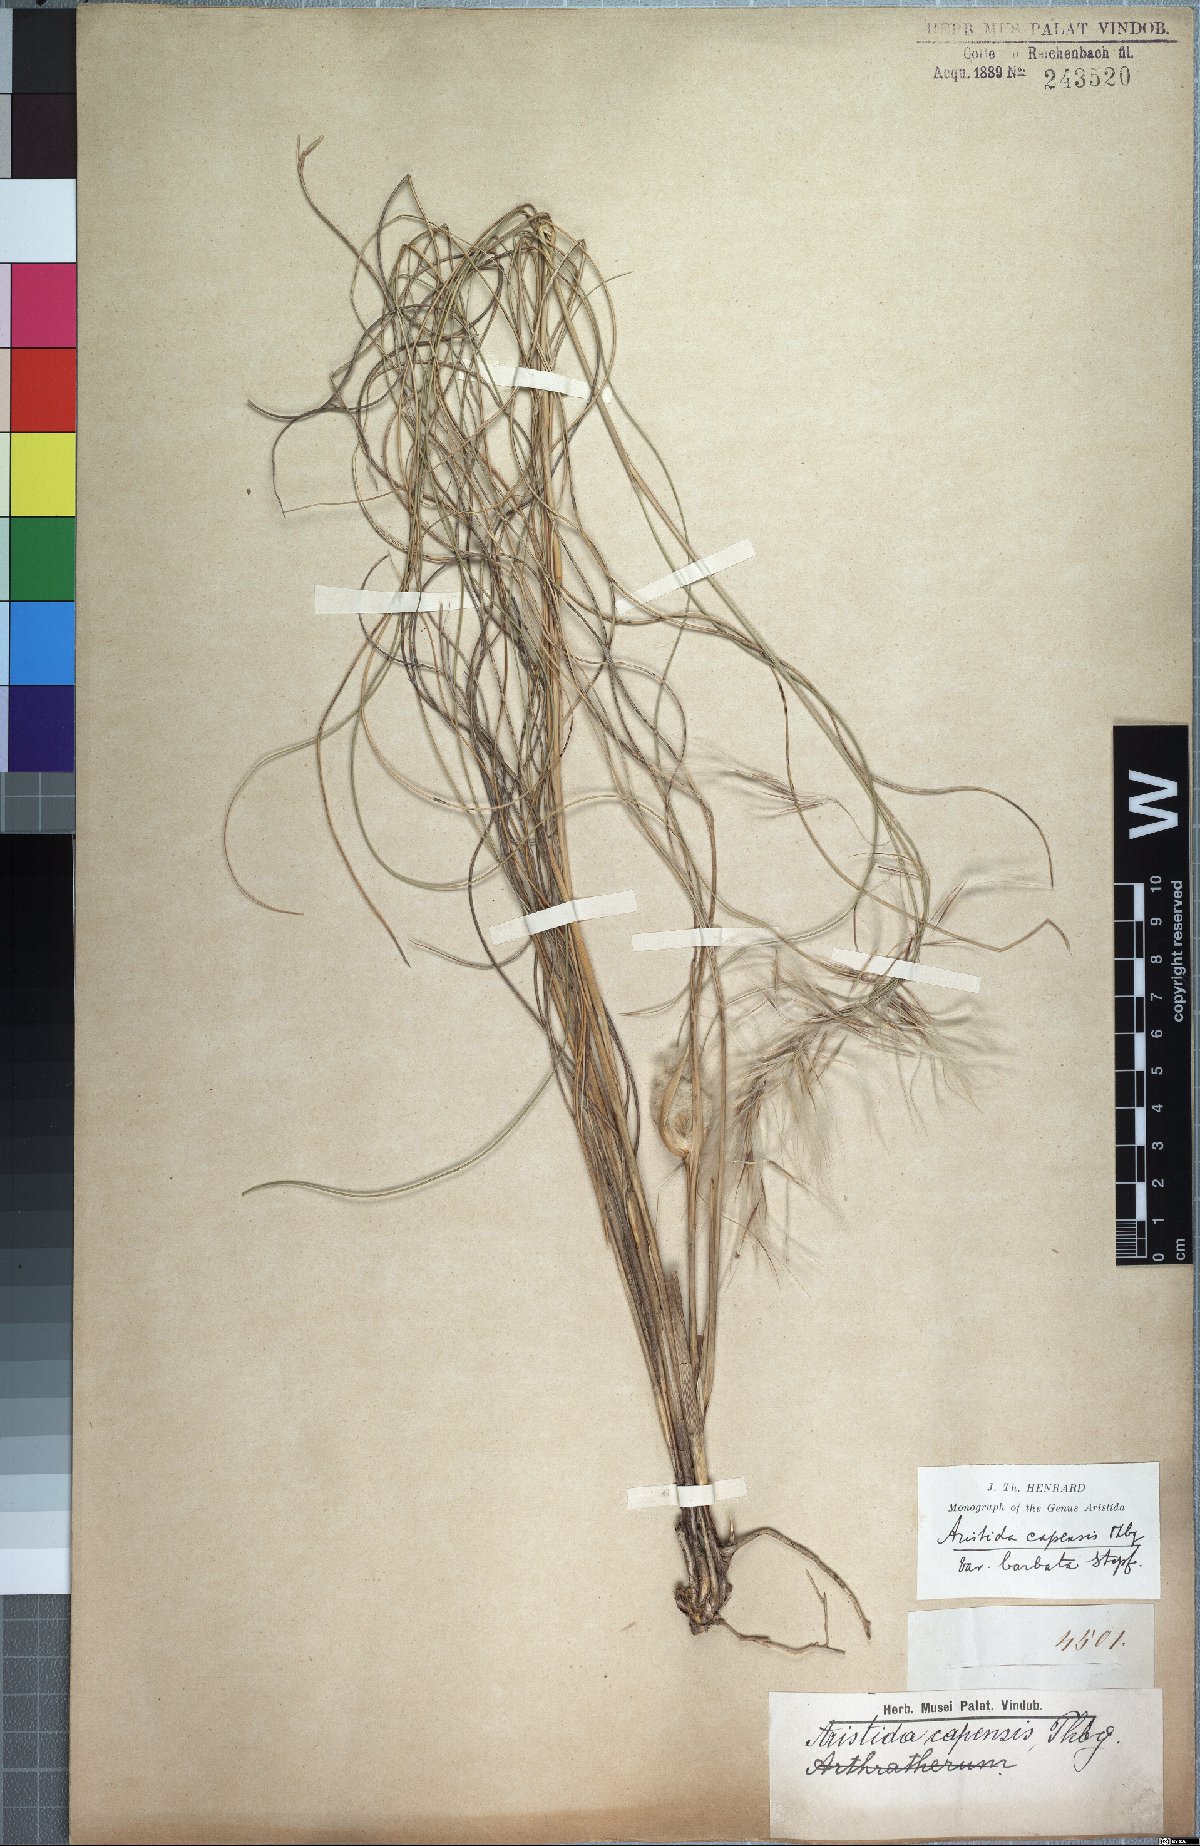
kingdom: Plantae
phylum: Tracheophyta
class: Liliopsida
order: Poales
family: Poaceae
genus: Stipagrostis
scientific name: Stipagrostis zeyheri
